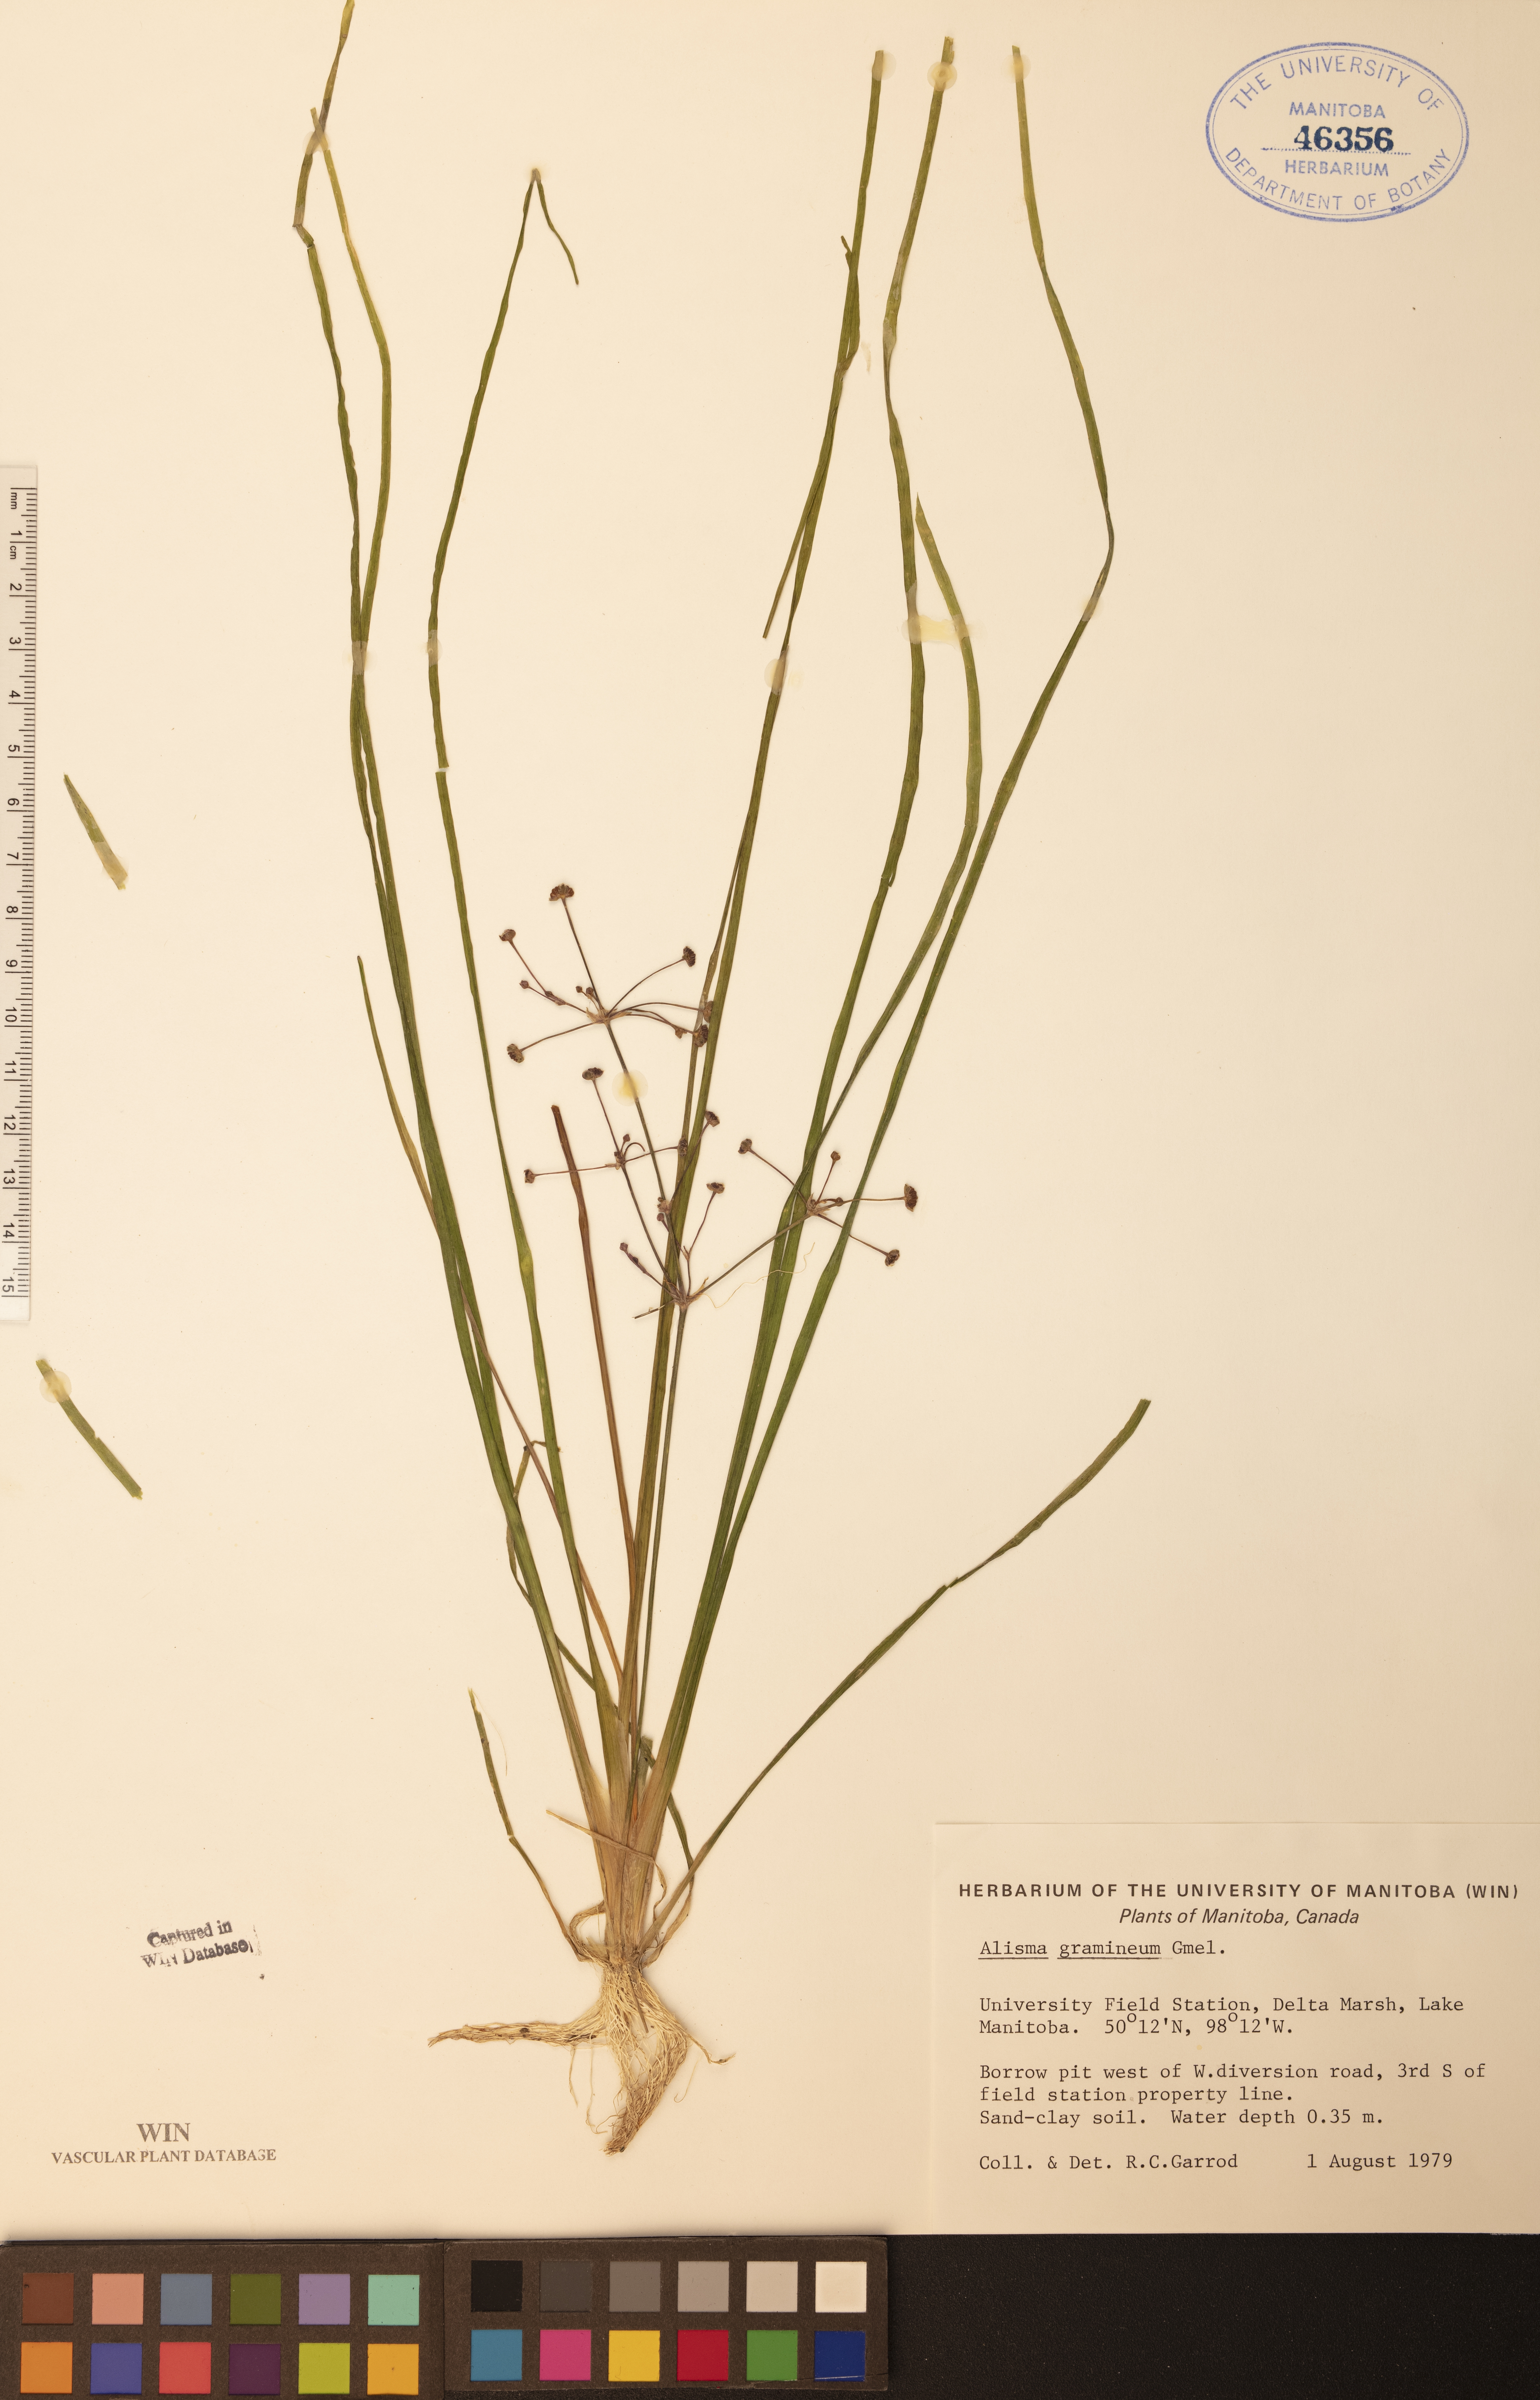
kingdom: Plantae
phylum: Tracheophyta
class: Liliopsida
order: Alismatales
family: Alismataceae
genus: Alisma
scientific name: Alisma gramineum
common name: Ribbon-leaved water-plantain
